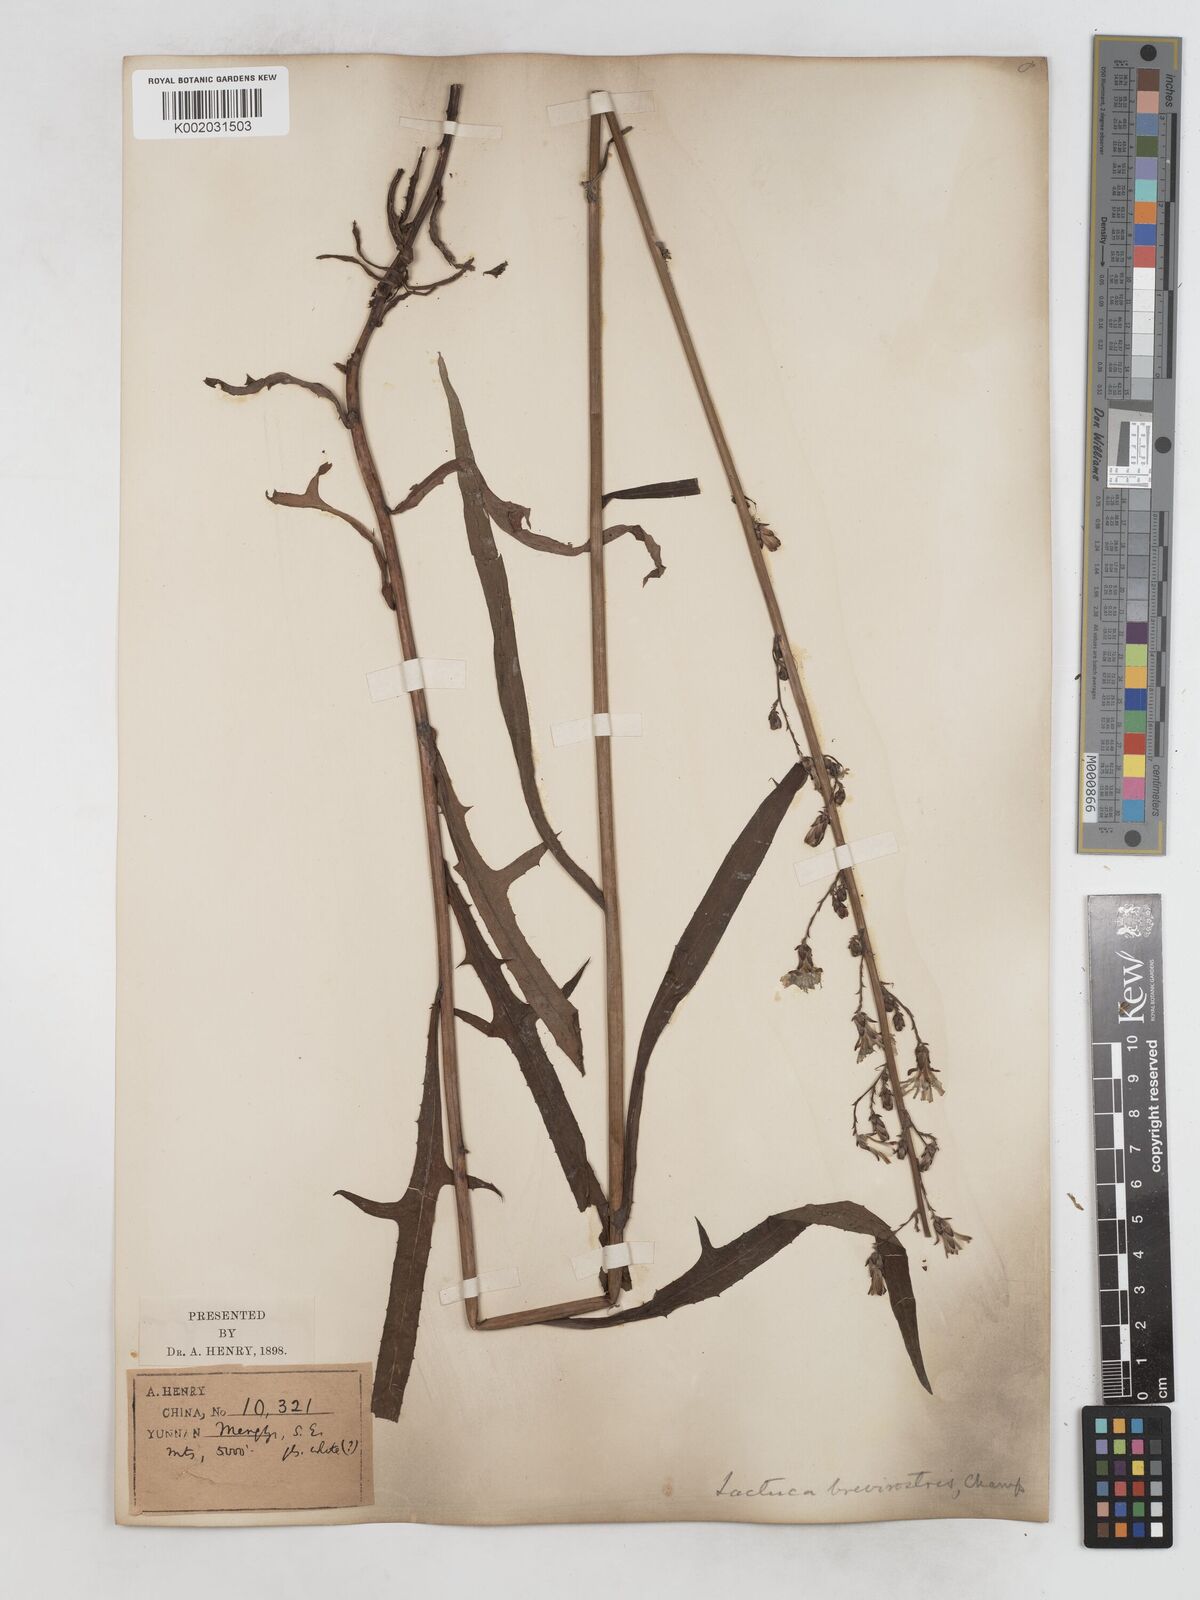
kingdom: Plantae
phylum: Tracheophyta
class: Magnoliopsida
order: Asterales
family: Asteraceae
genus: Lactuca
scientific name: Lactuca indica
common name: Wild lettuce
